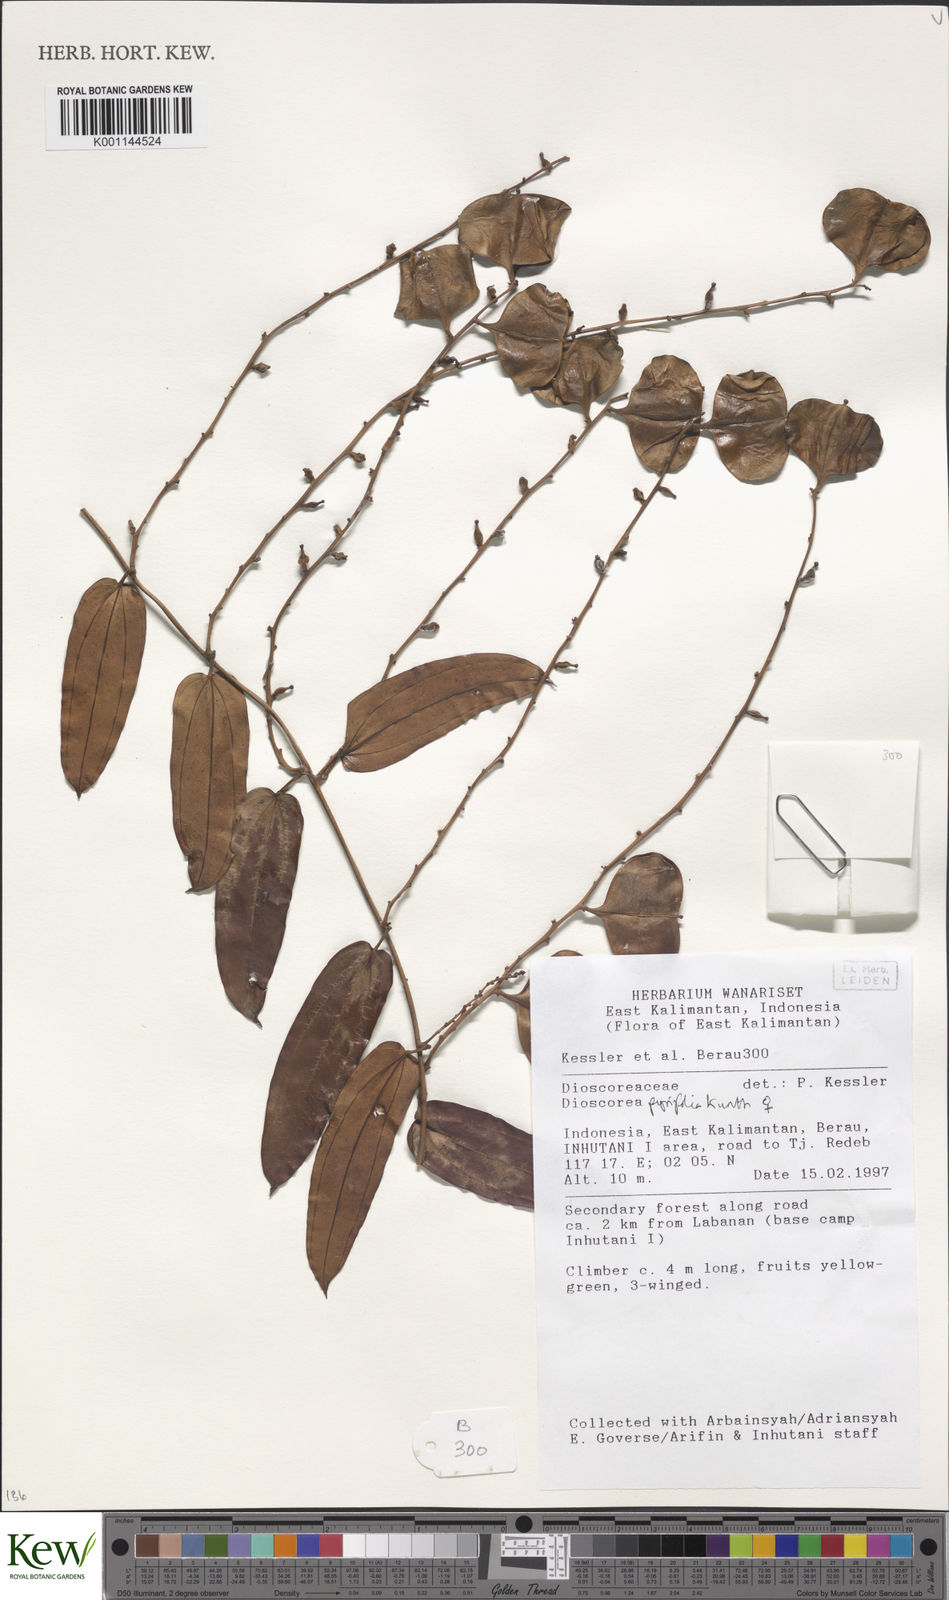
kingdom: Plantae
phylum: Tracheophyta
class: Liliopsida
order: Dioscoreales
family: Dioscoreaceae
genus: Dioscorea
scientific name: Dioscorea pyrifolia
